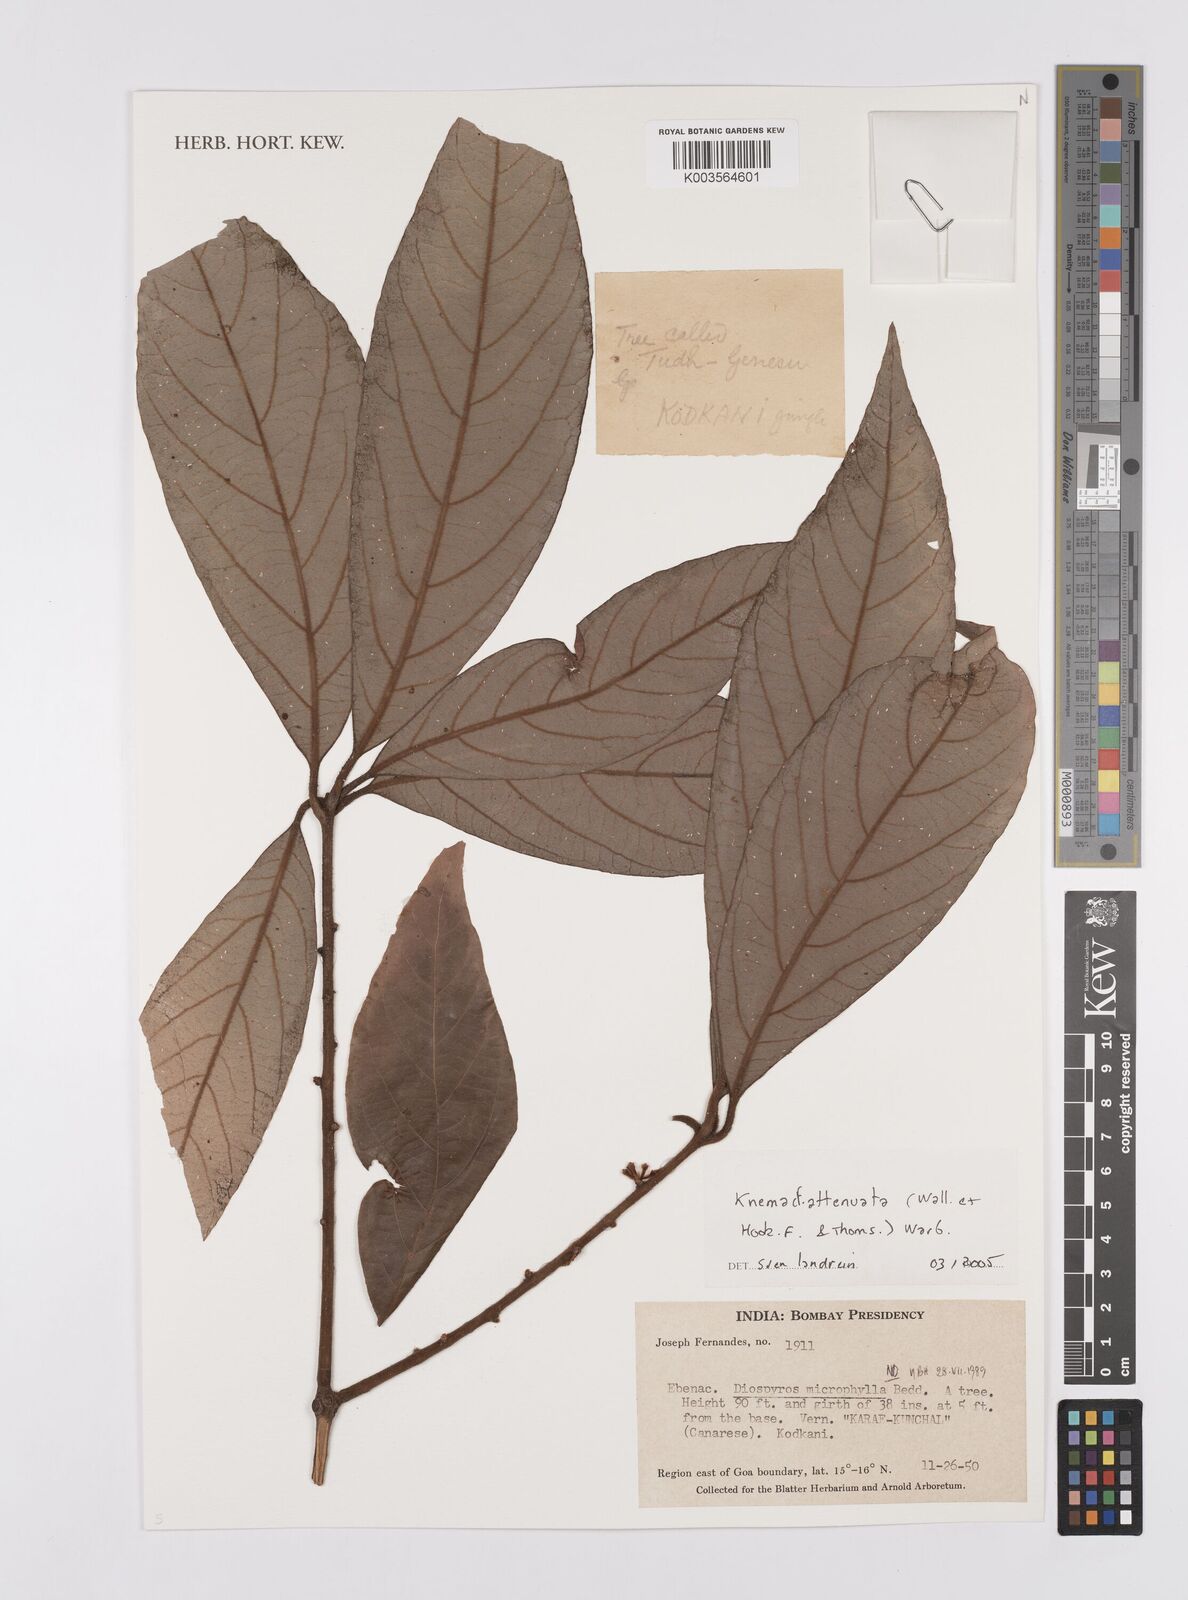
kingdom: Plantae
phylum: Tracheophyta
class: Magnoliopsida
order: Magnoliales
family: Myristicaceae
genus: Knema
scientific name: Knema attenuata
